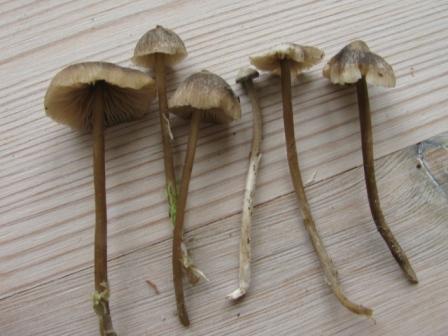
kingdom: Fungi
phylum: Basidiomycota
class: Agaricomycetes
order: Agaricales
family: Lyophyllaceae
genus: Sphagnurus
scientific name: Sphagnurus paluster
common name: tørvemos-gråblad
